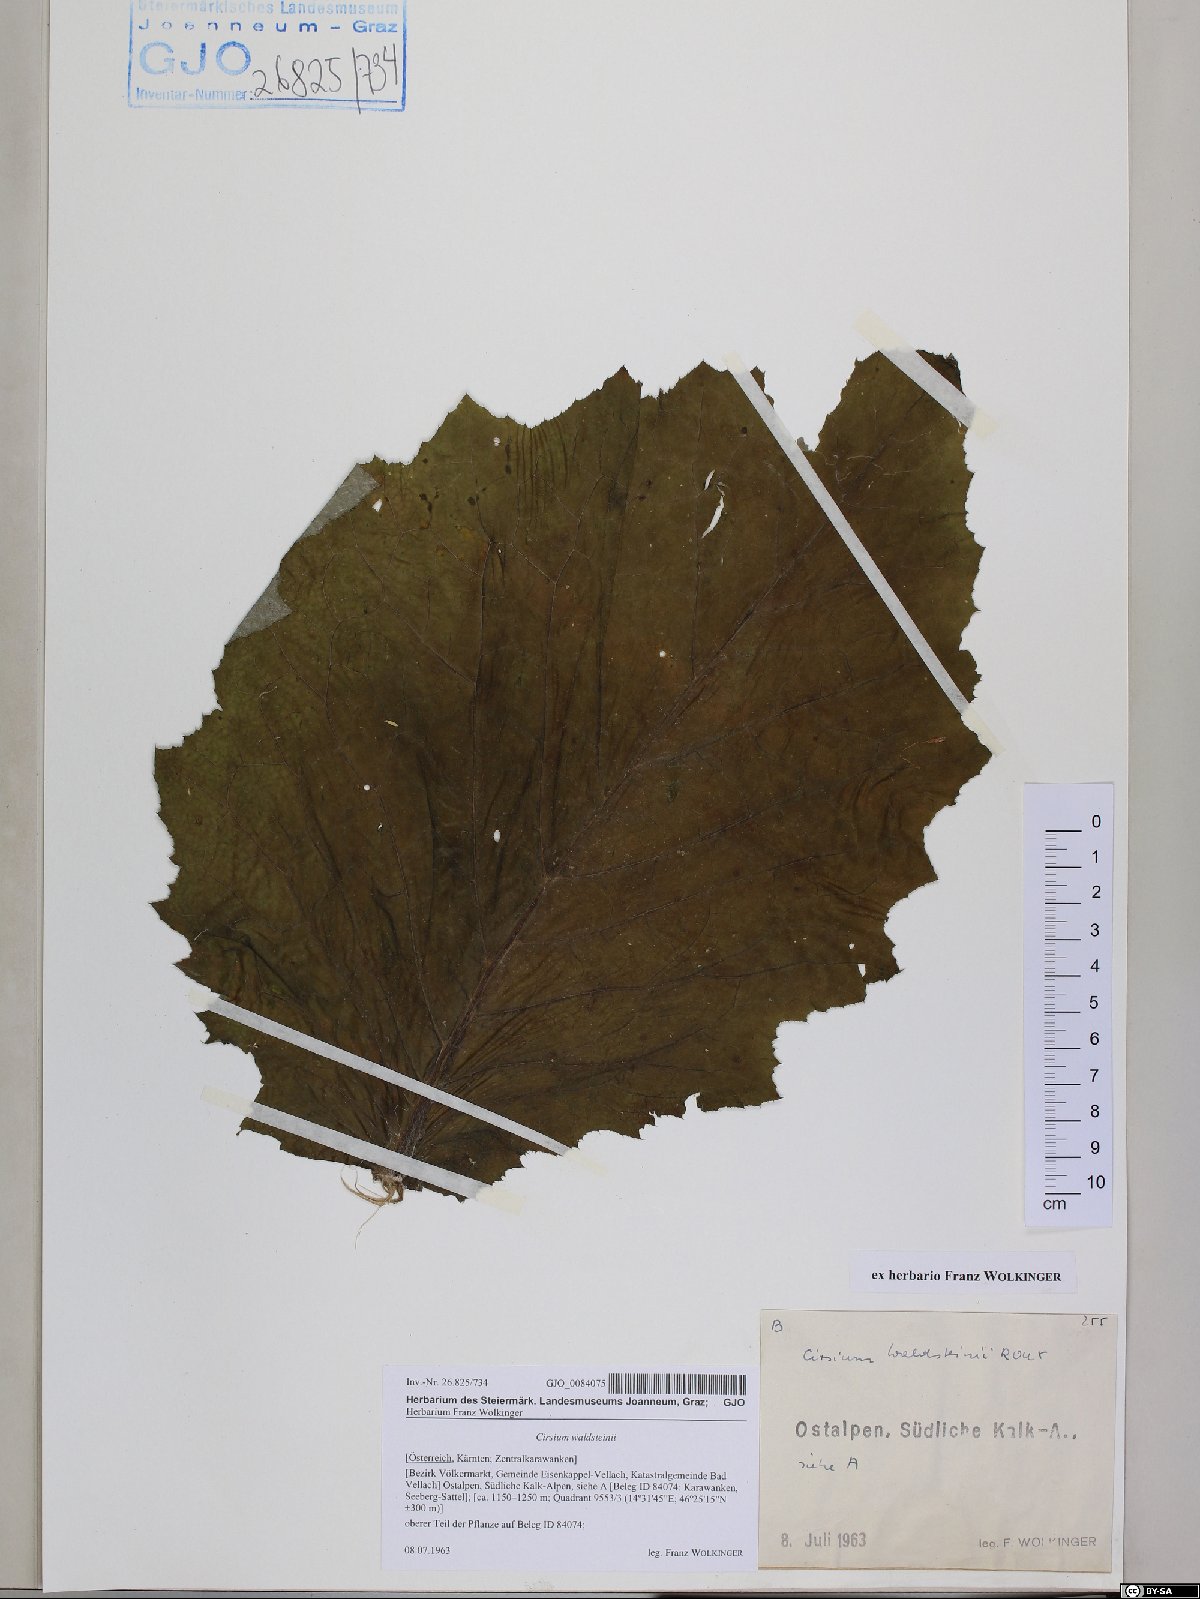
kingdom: Plantae
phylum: Tracheophyta
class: Magnoliopsida
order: Asterales
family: Asteraceae
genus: Cirsium
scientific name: Cirsium greimleri
